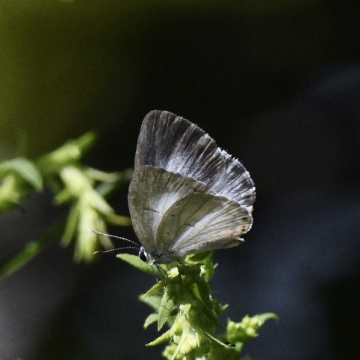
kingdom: Animalia
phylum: Arthropoda
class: Insecta
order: Lepidoptera
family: Lycaenidae
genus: Cyaniris
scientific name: Cyaniris neglecta
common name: Summer Azure
